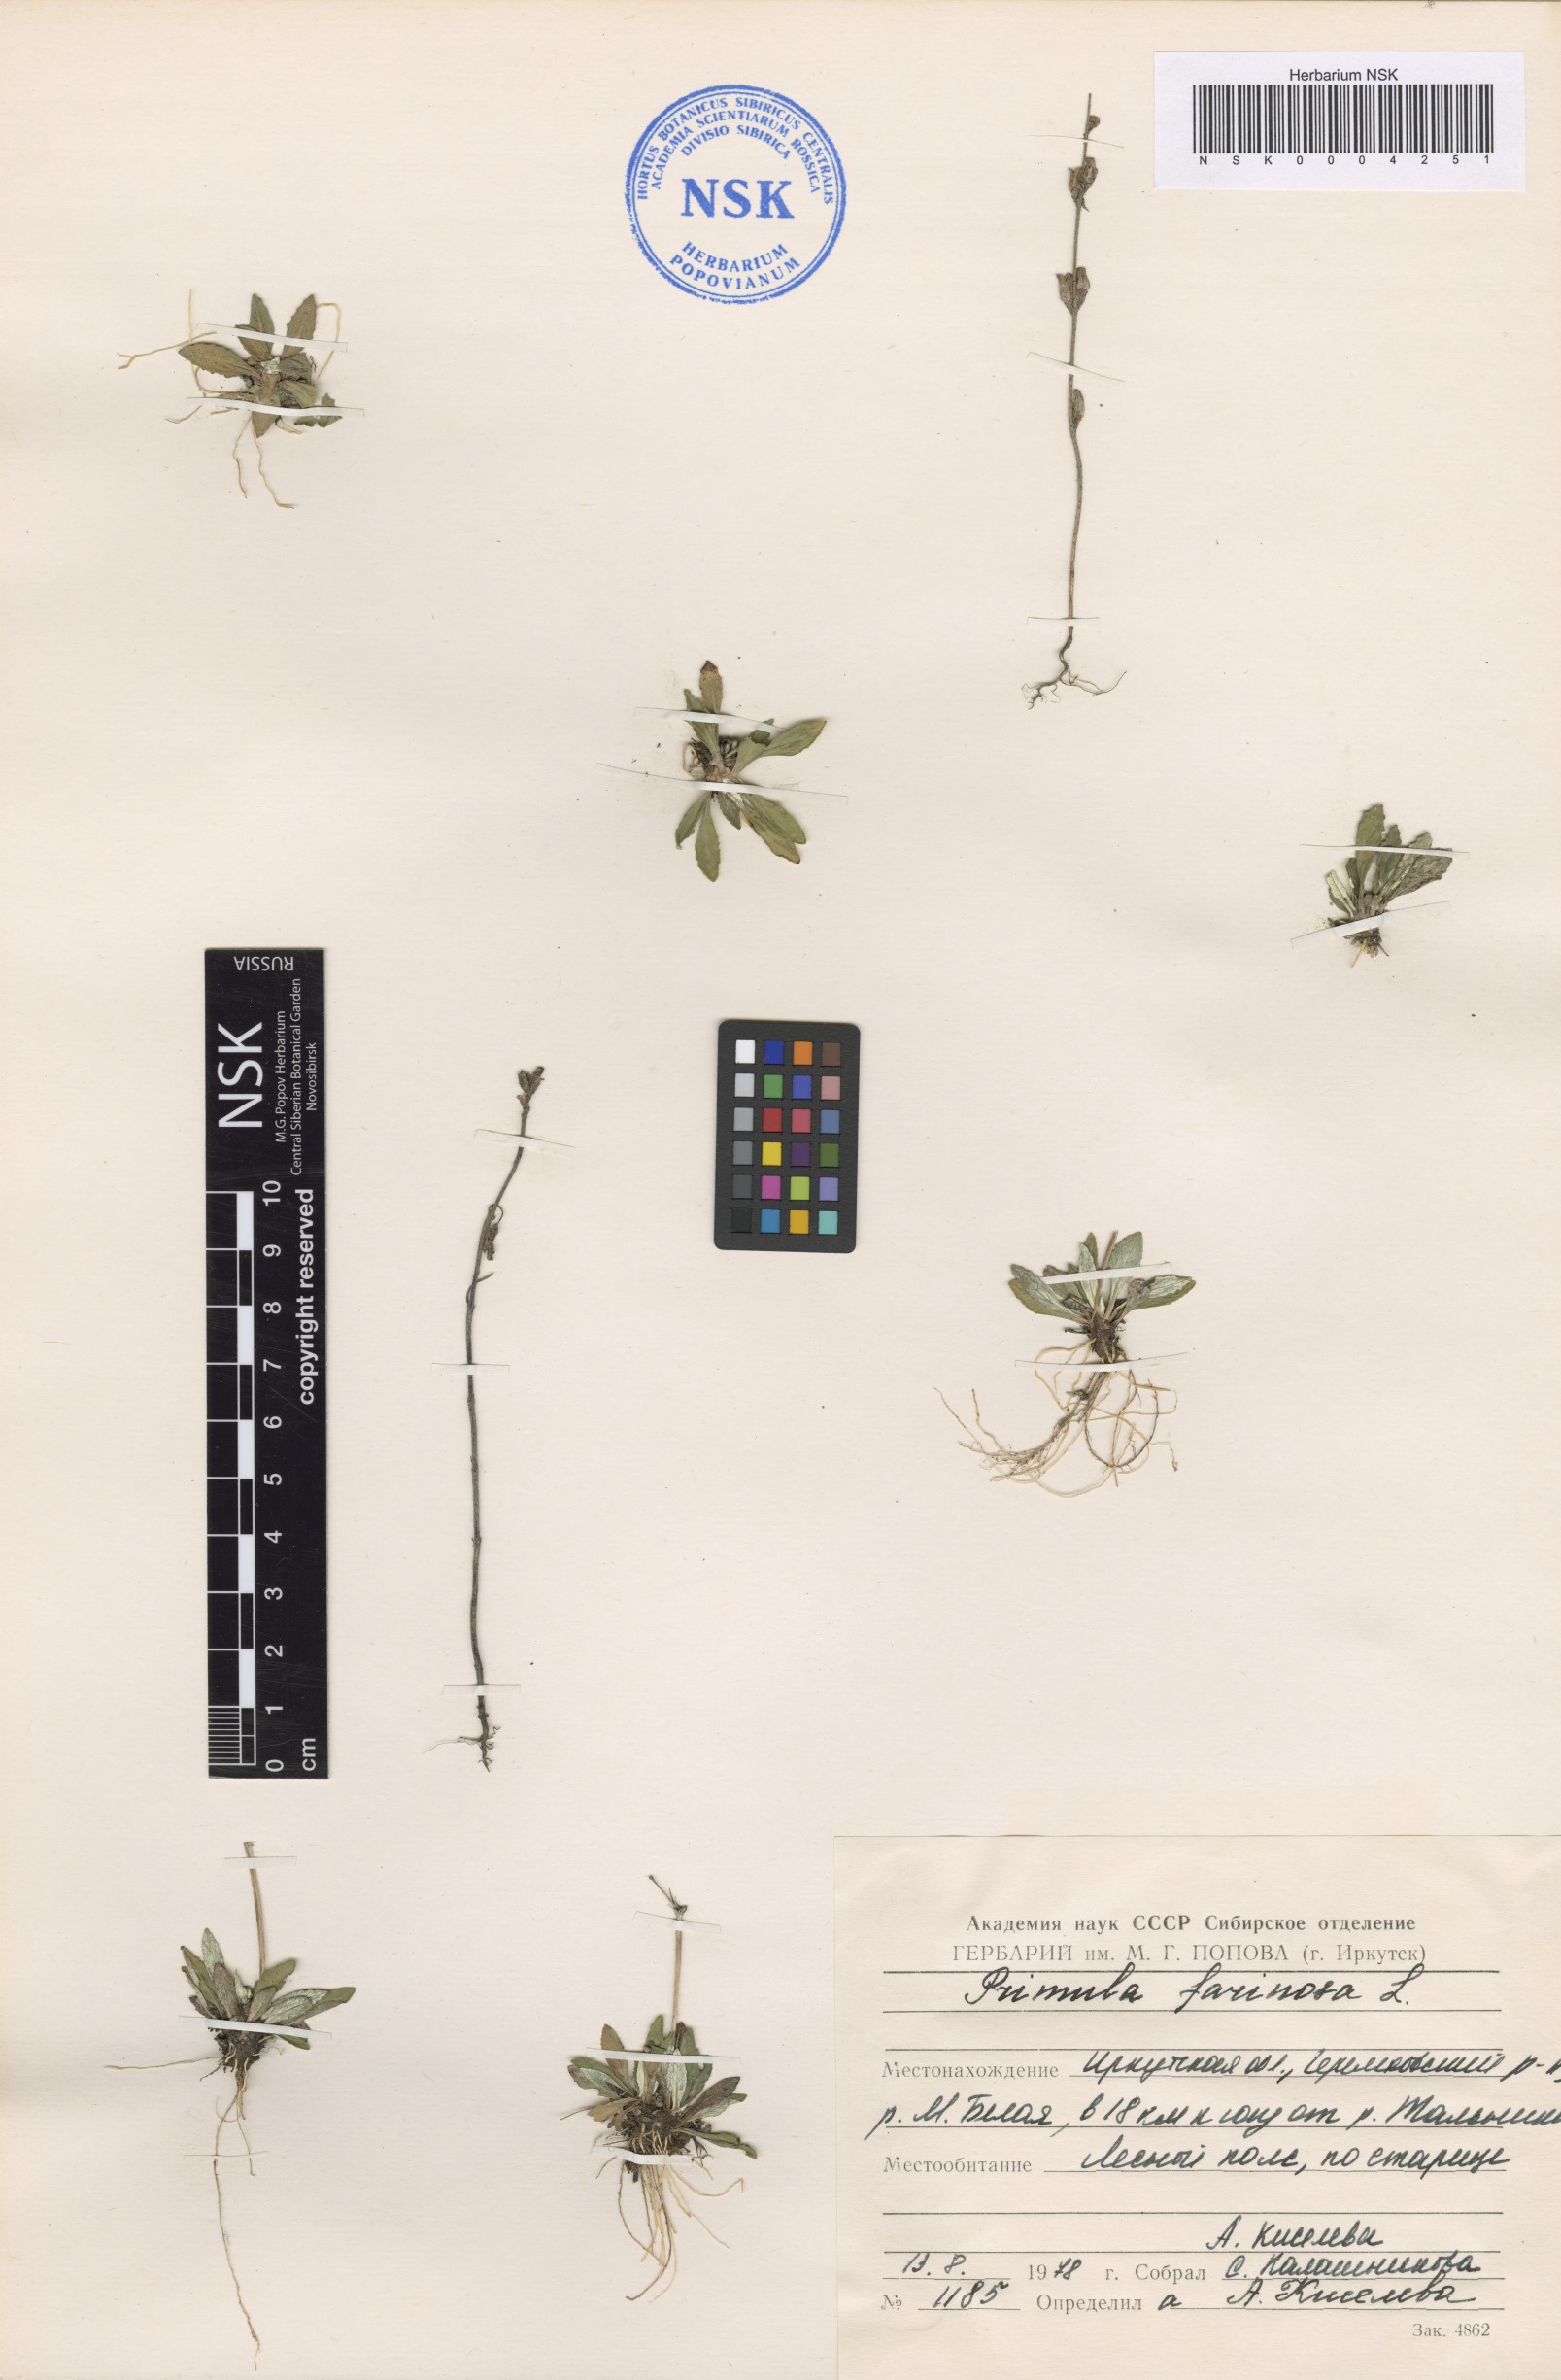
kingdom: Plantae
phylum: Tracheophyta
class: Magnoliopsida
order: Ericales
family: Primulaceae
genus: Primula
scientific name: Primula farinosa
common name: Bird's-eye primrose
